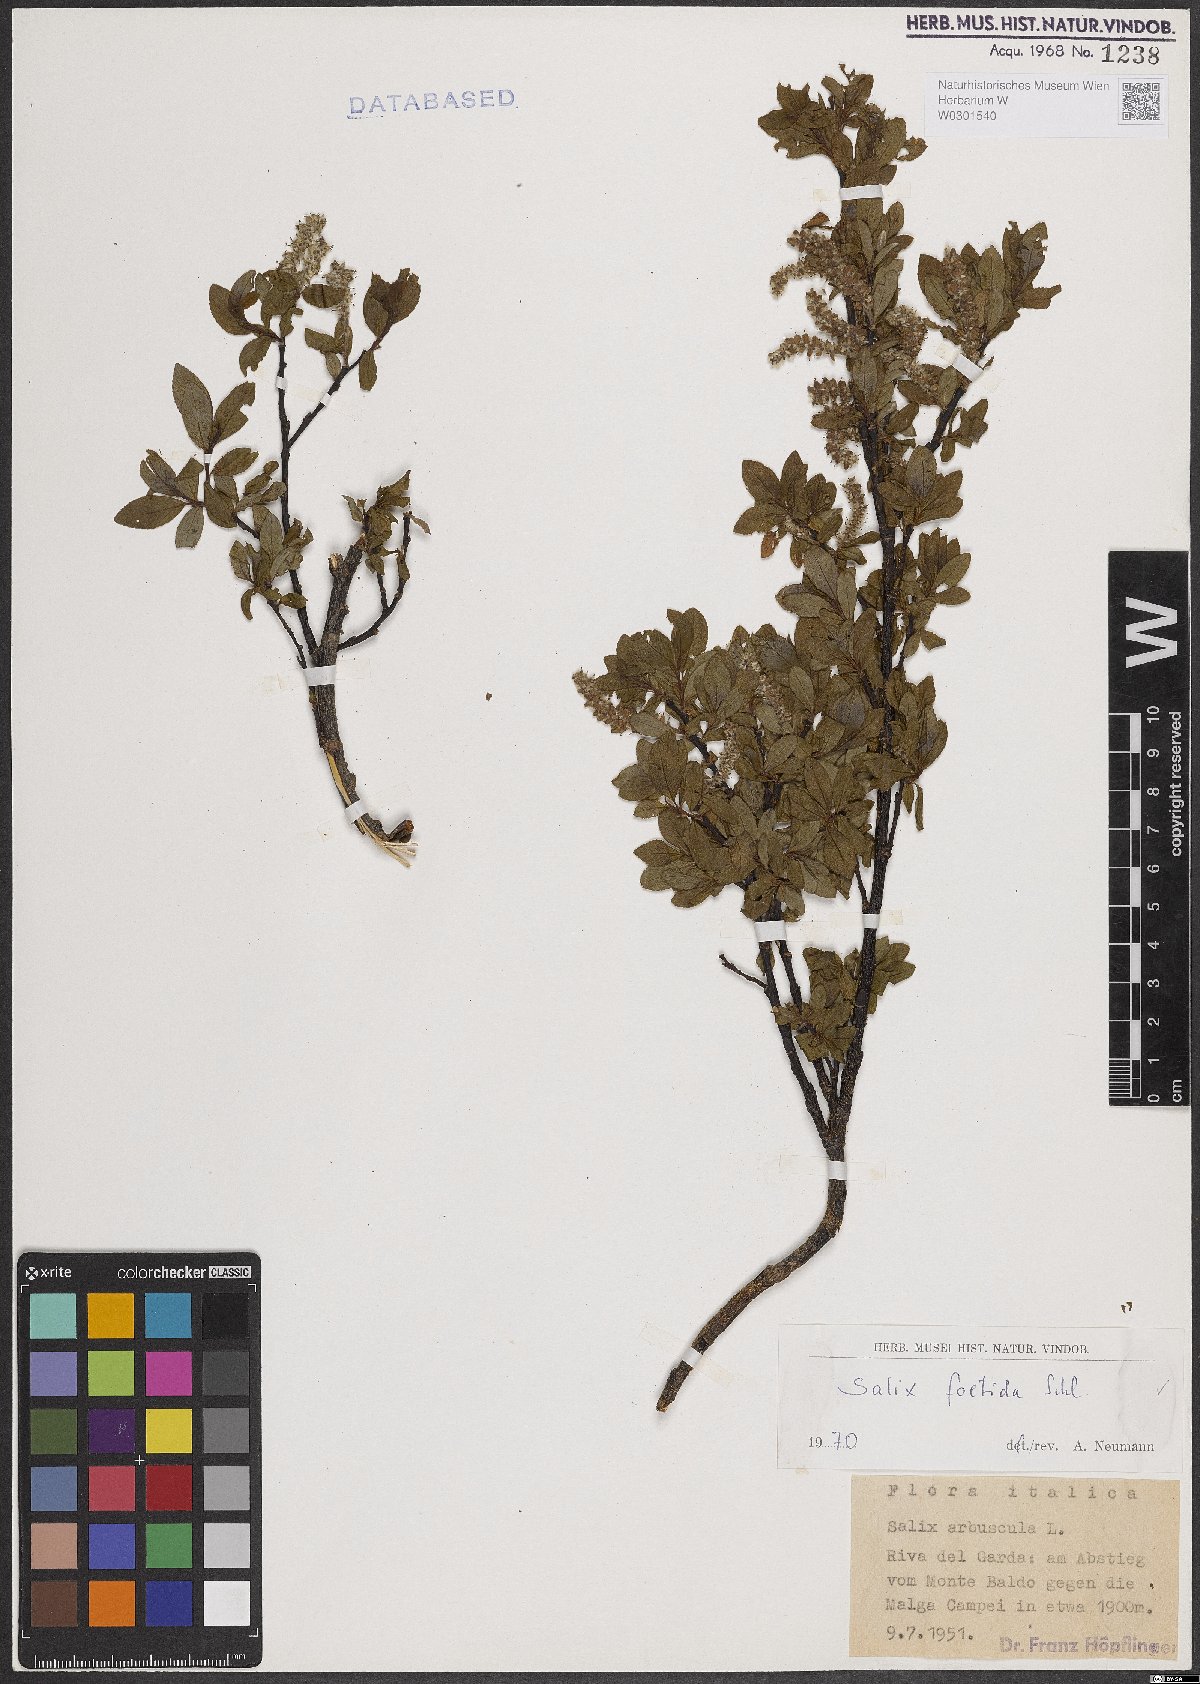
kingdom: Plantae
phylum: Tracheophyta
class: Magnoliopsida
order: Malpighiales
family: Salicaceae
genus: Salix
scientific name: Salix foetida
